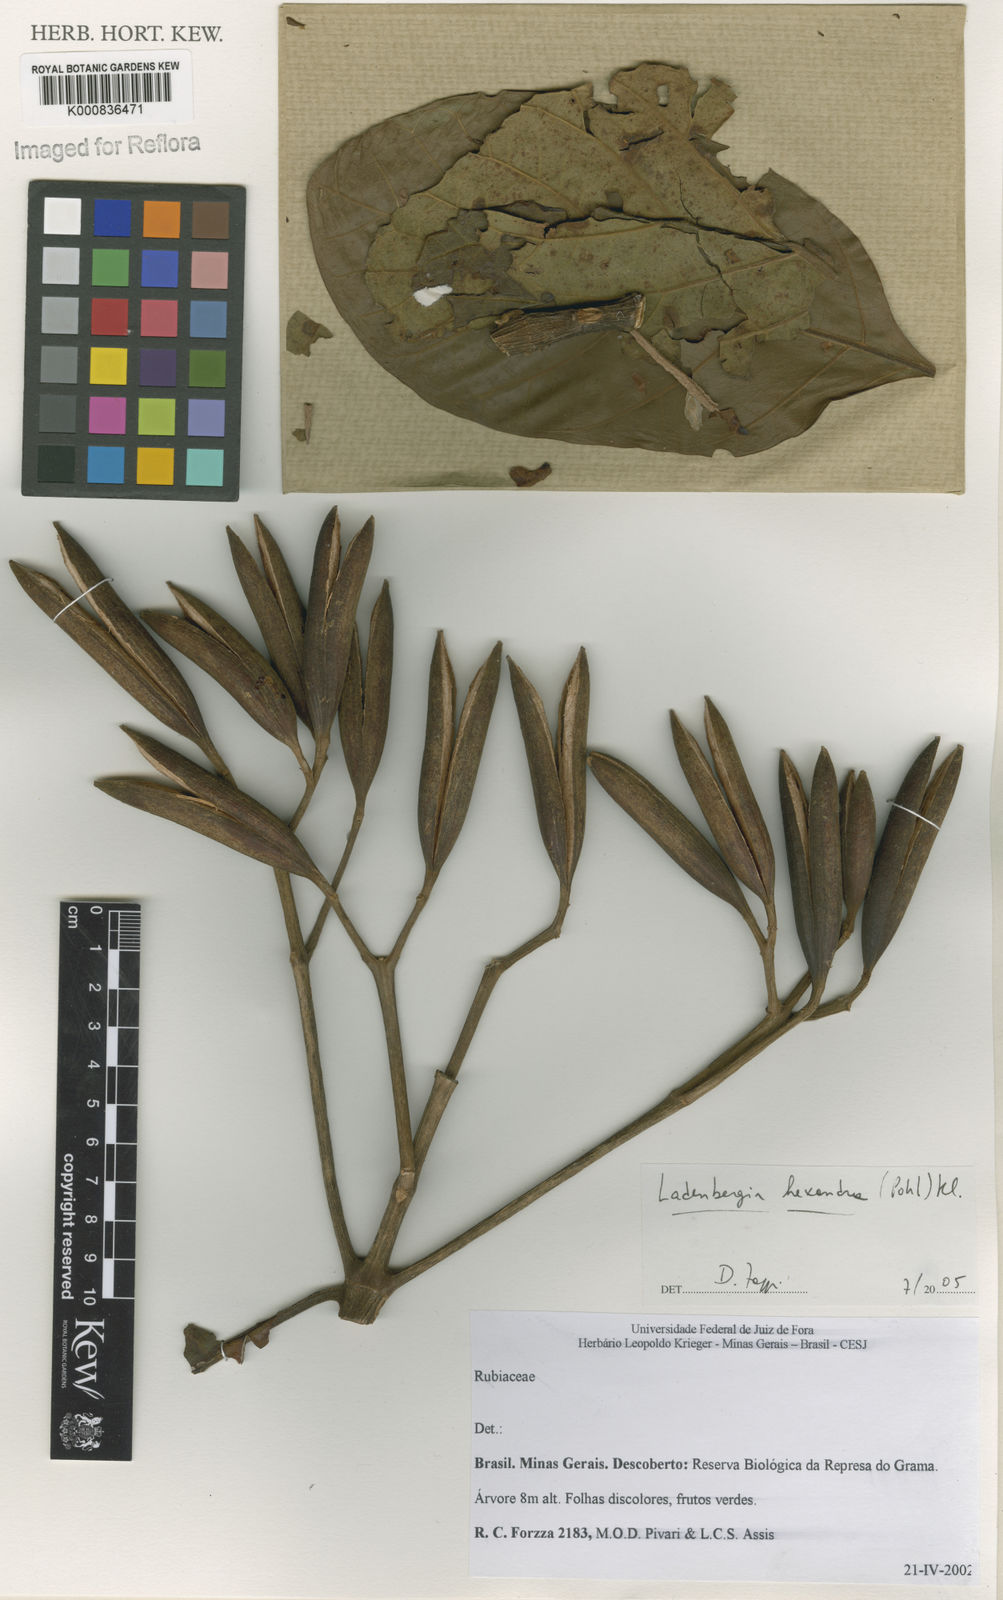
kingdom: Plantae
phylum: Tracheophyta
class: Magnoliopsida
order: Gentianales
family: Rubiaceae
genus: Ladenbergia
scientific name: Ladenbergia hexandra
